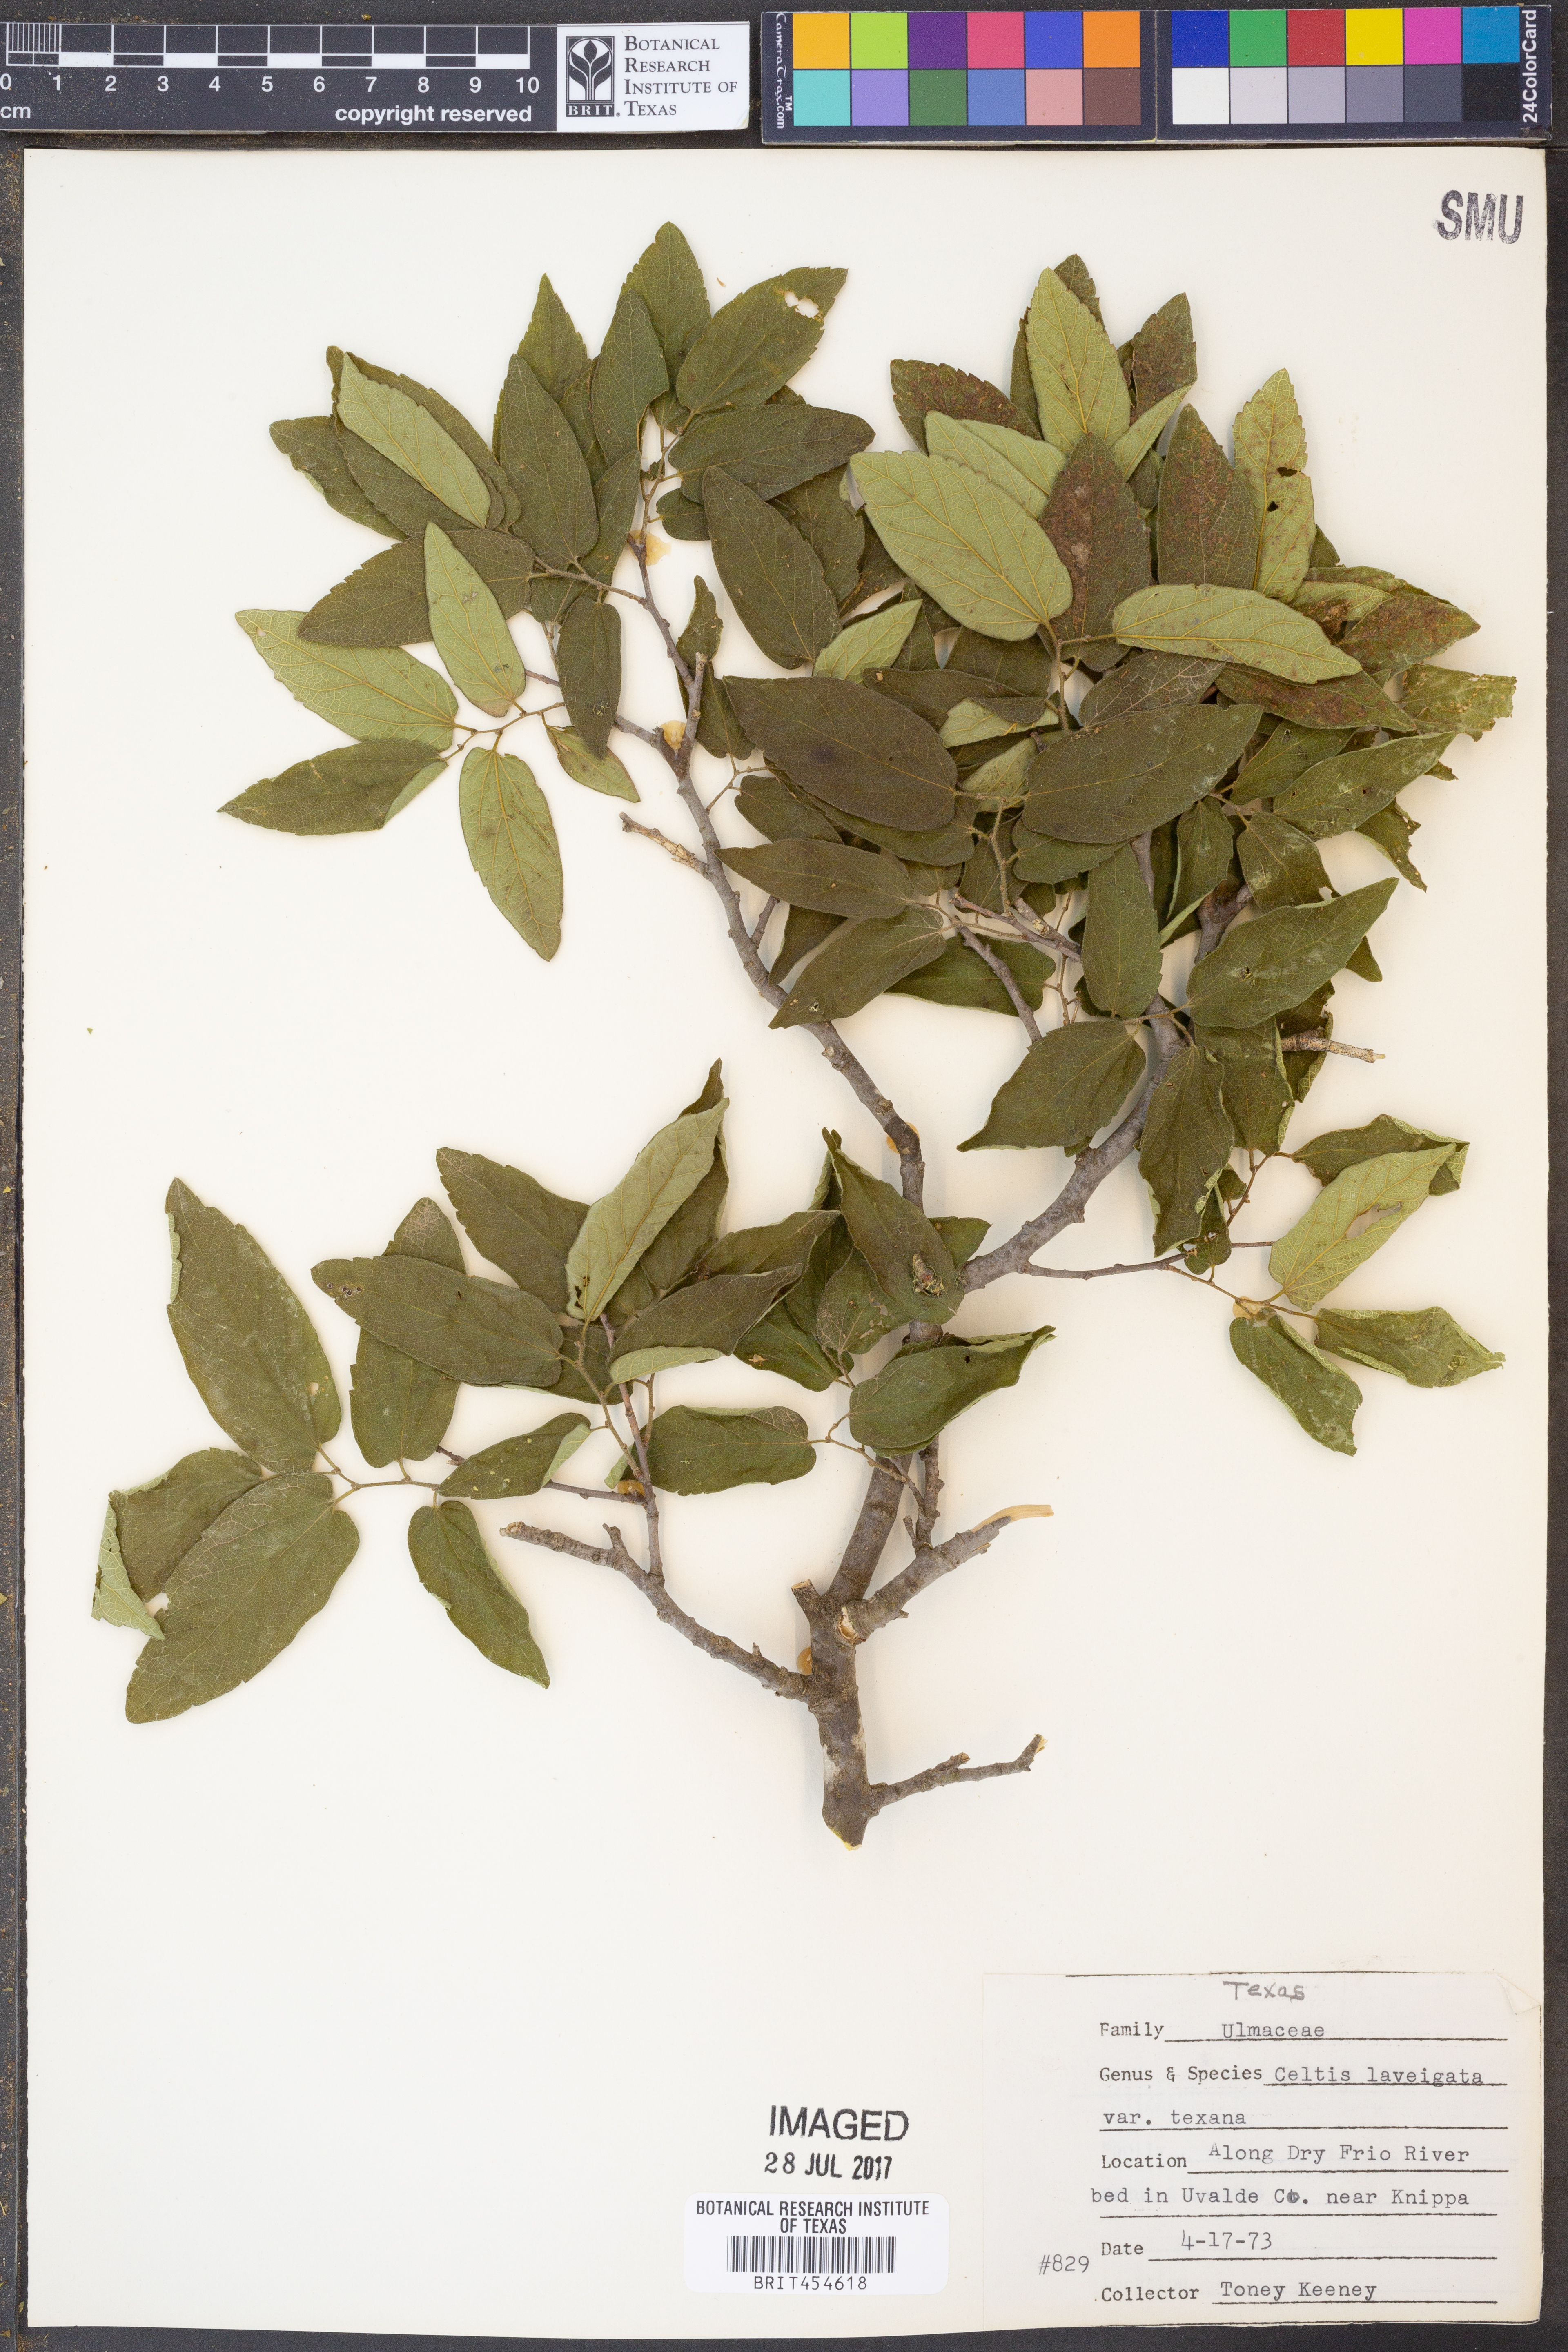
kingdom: Plantae
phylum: Tracheophyta
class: Magnoliopsida
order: Rosales
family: Cannabaceae
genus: Celtis
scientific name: Celtis laevigata
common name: Sugarberry
